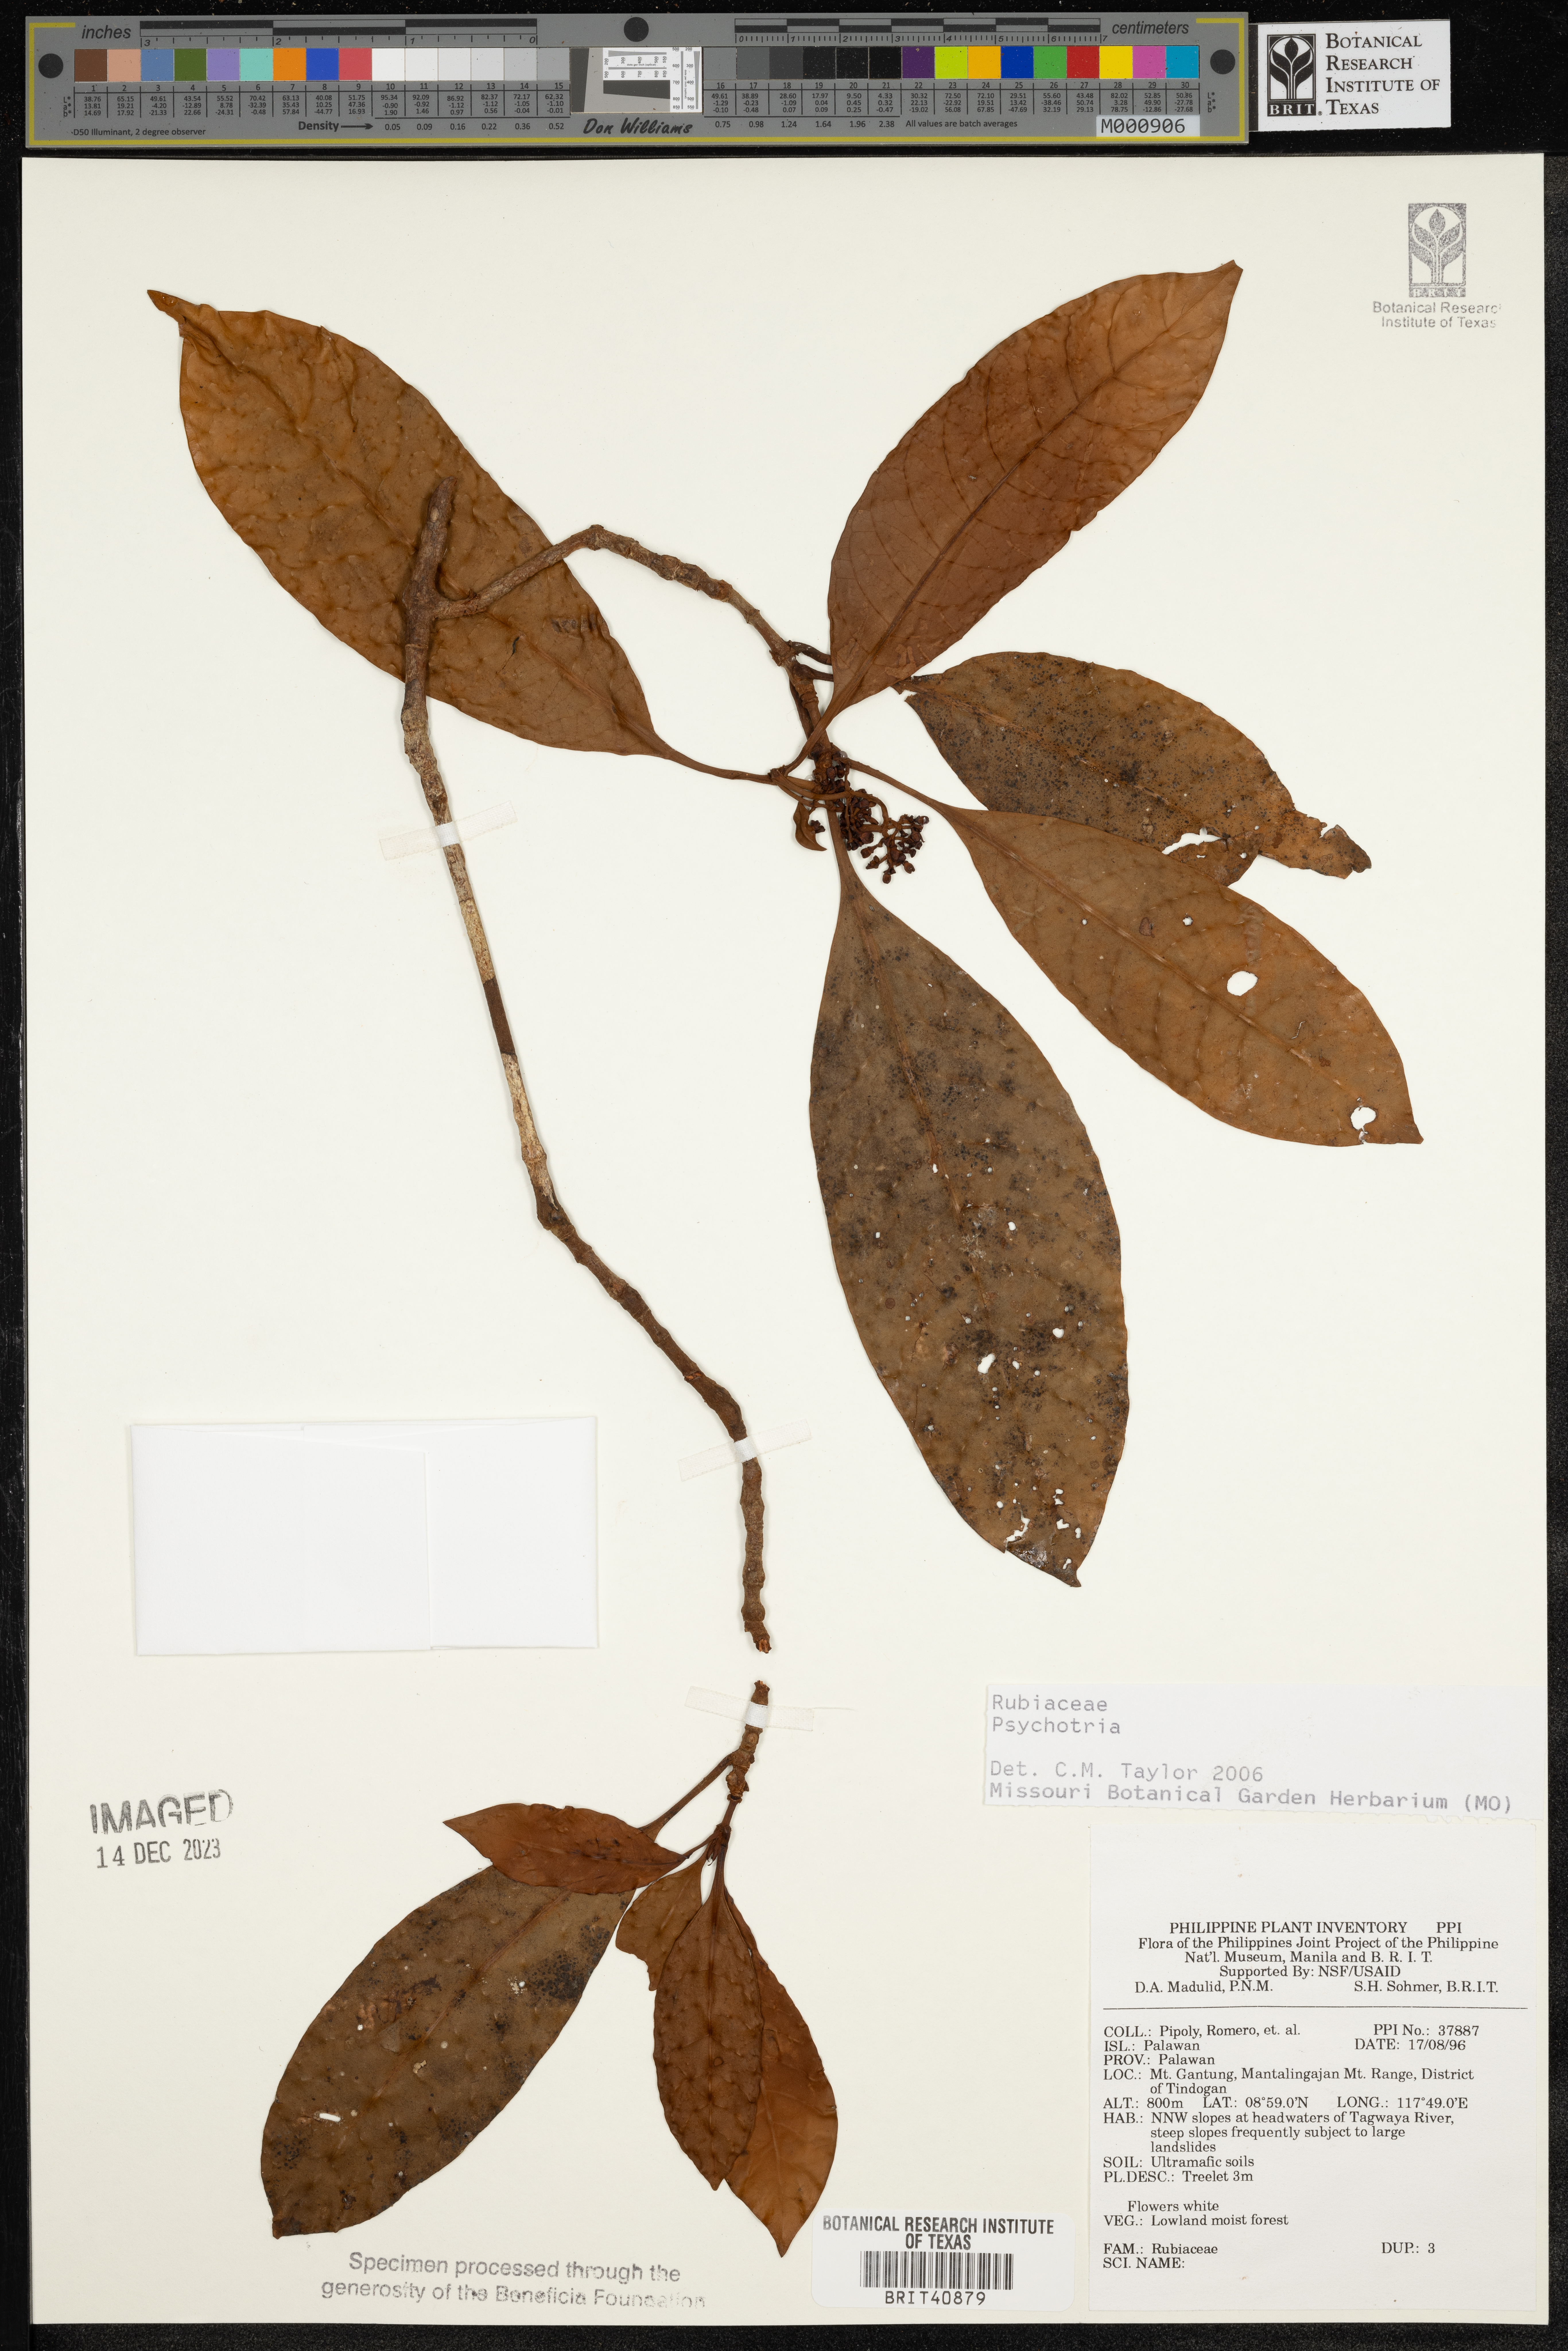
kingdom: Plantae
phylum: Tracheophyta
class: Magnoliopsida
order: Gentianales
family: Rubiaceae
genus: Psychotria
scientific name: Psychotria
